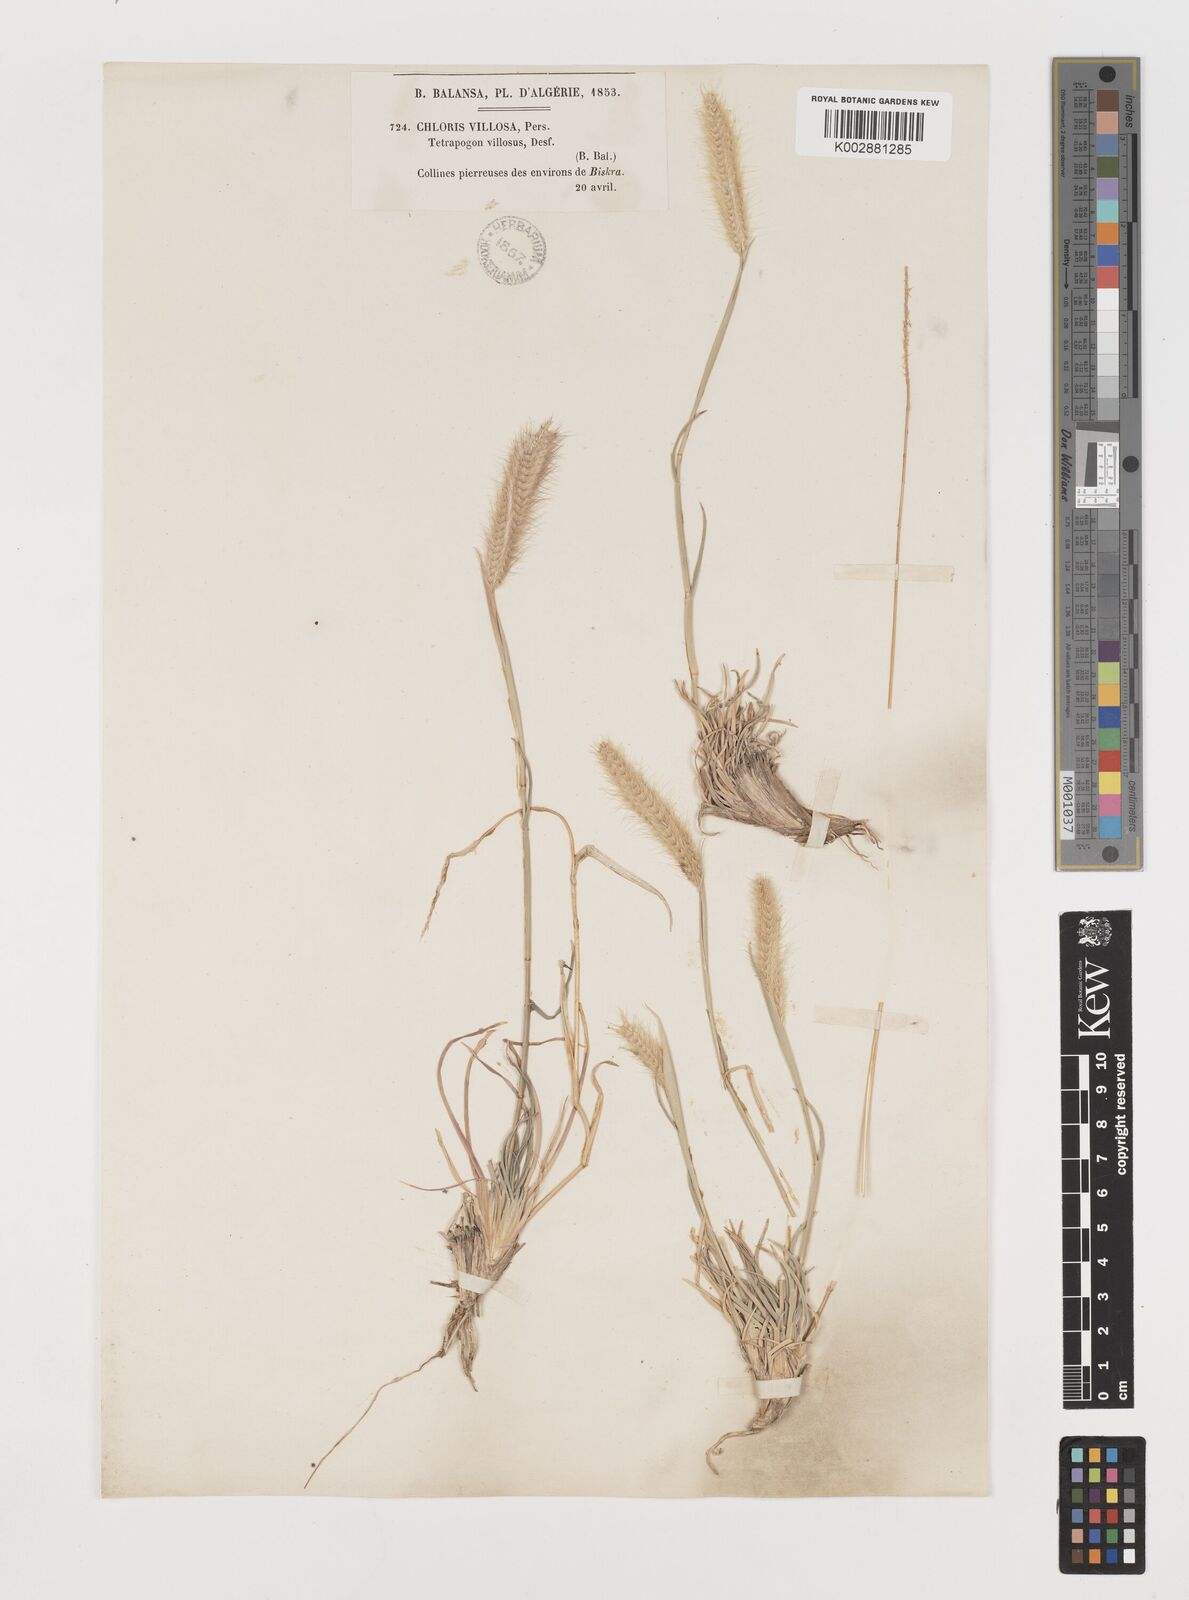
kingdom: Plantae
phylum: Tracheophyta
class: Liliopsida
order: Poales
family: Poaceae
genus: Tetrapogon
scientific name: Tetrapogon villosus
